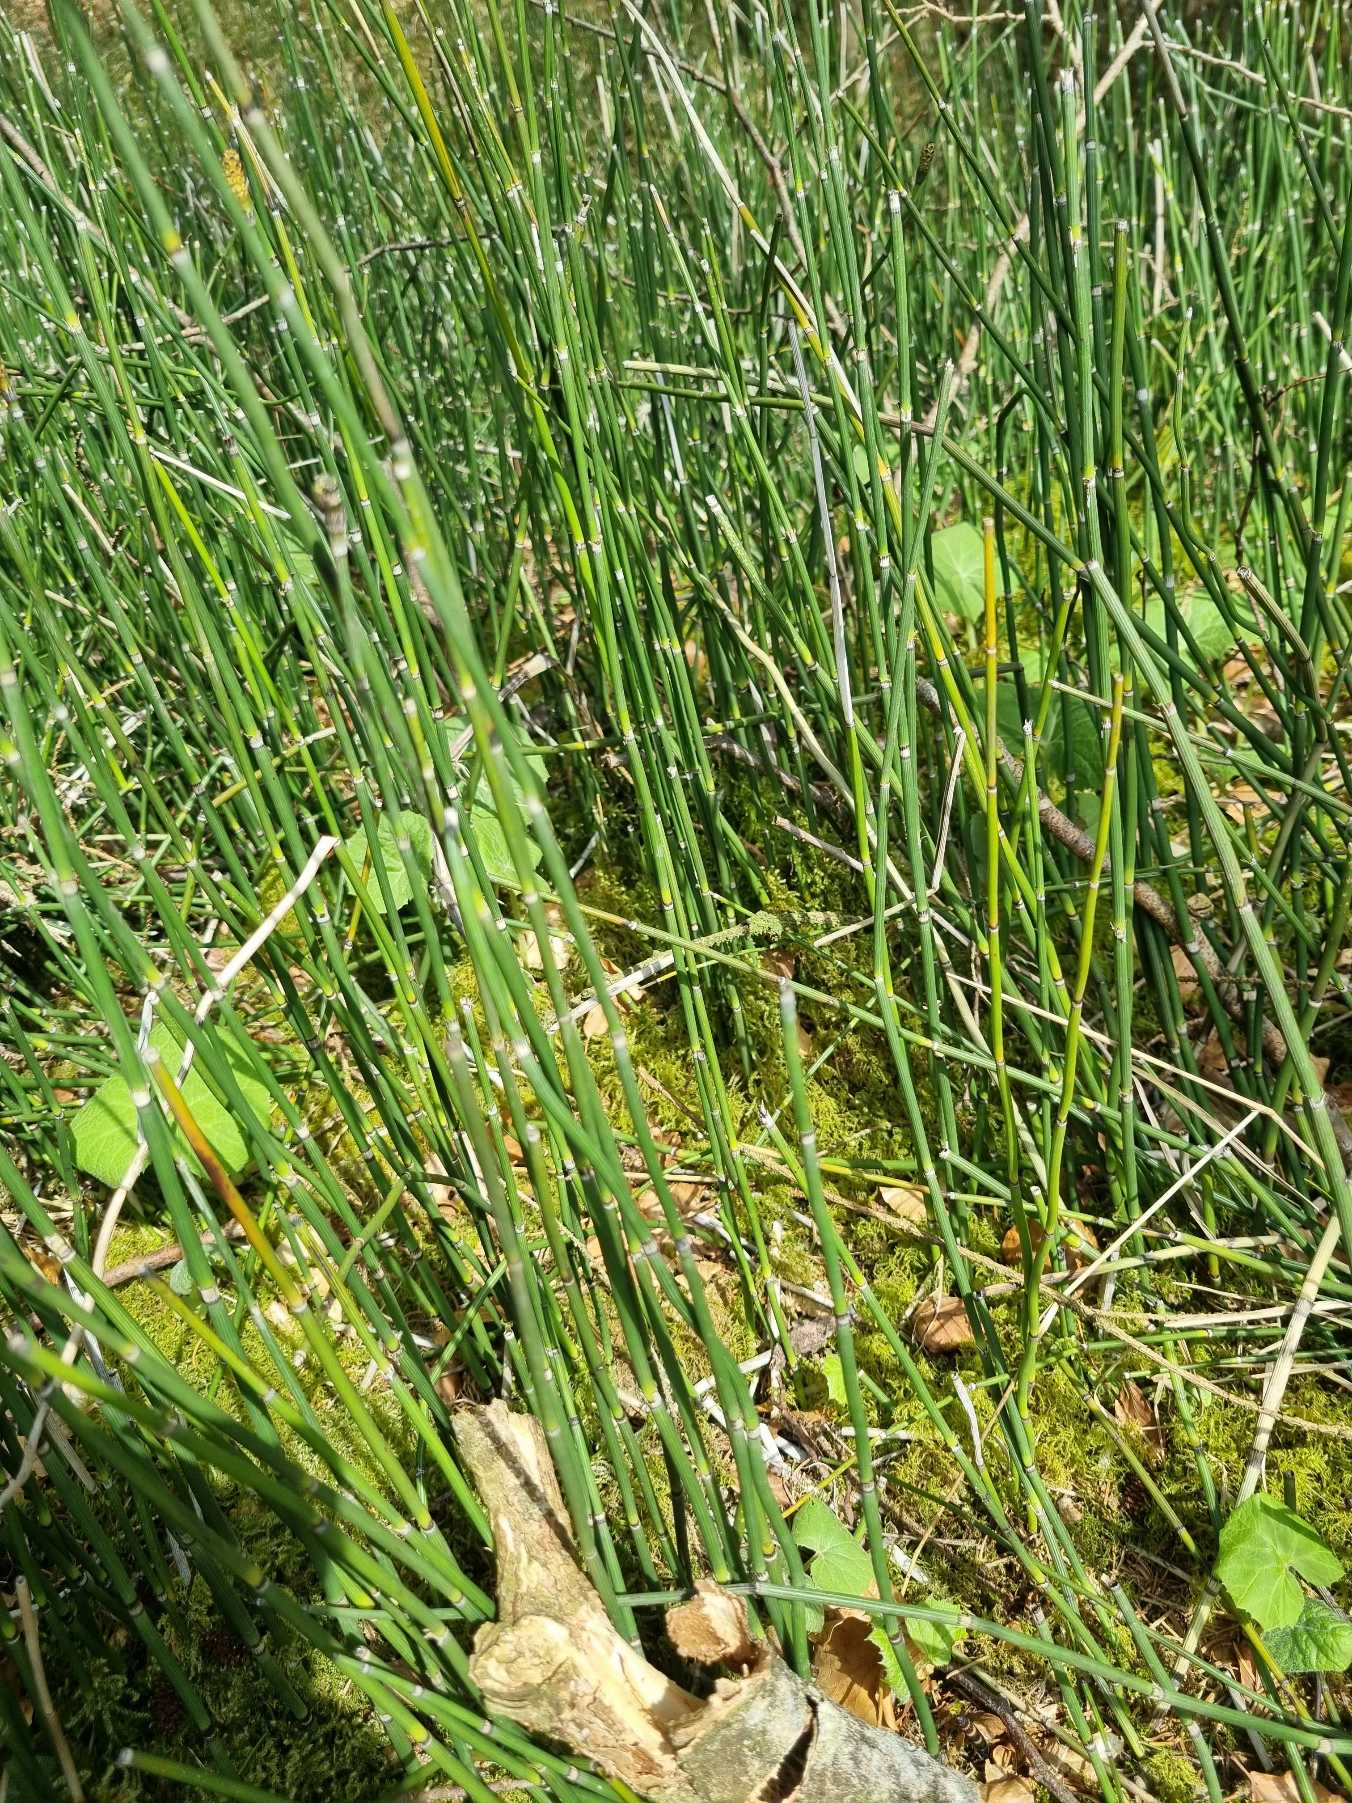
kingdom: Plantae
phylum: Tracheophyta
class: Polypodiopsida
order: Equisetales
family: Equisetaceae
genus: Equisetum
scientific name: Equisetum hyemale
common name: Skavgræs
